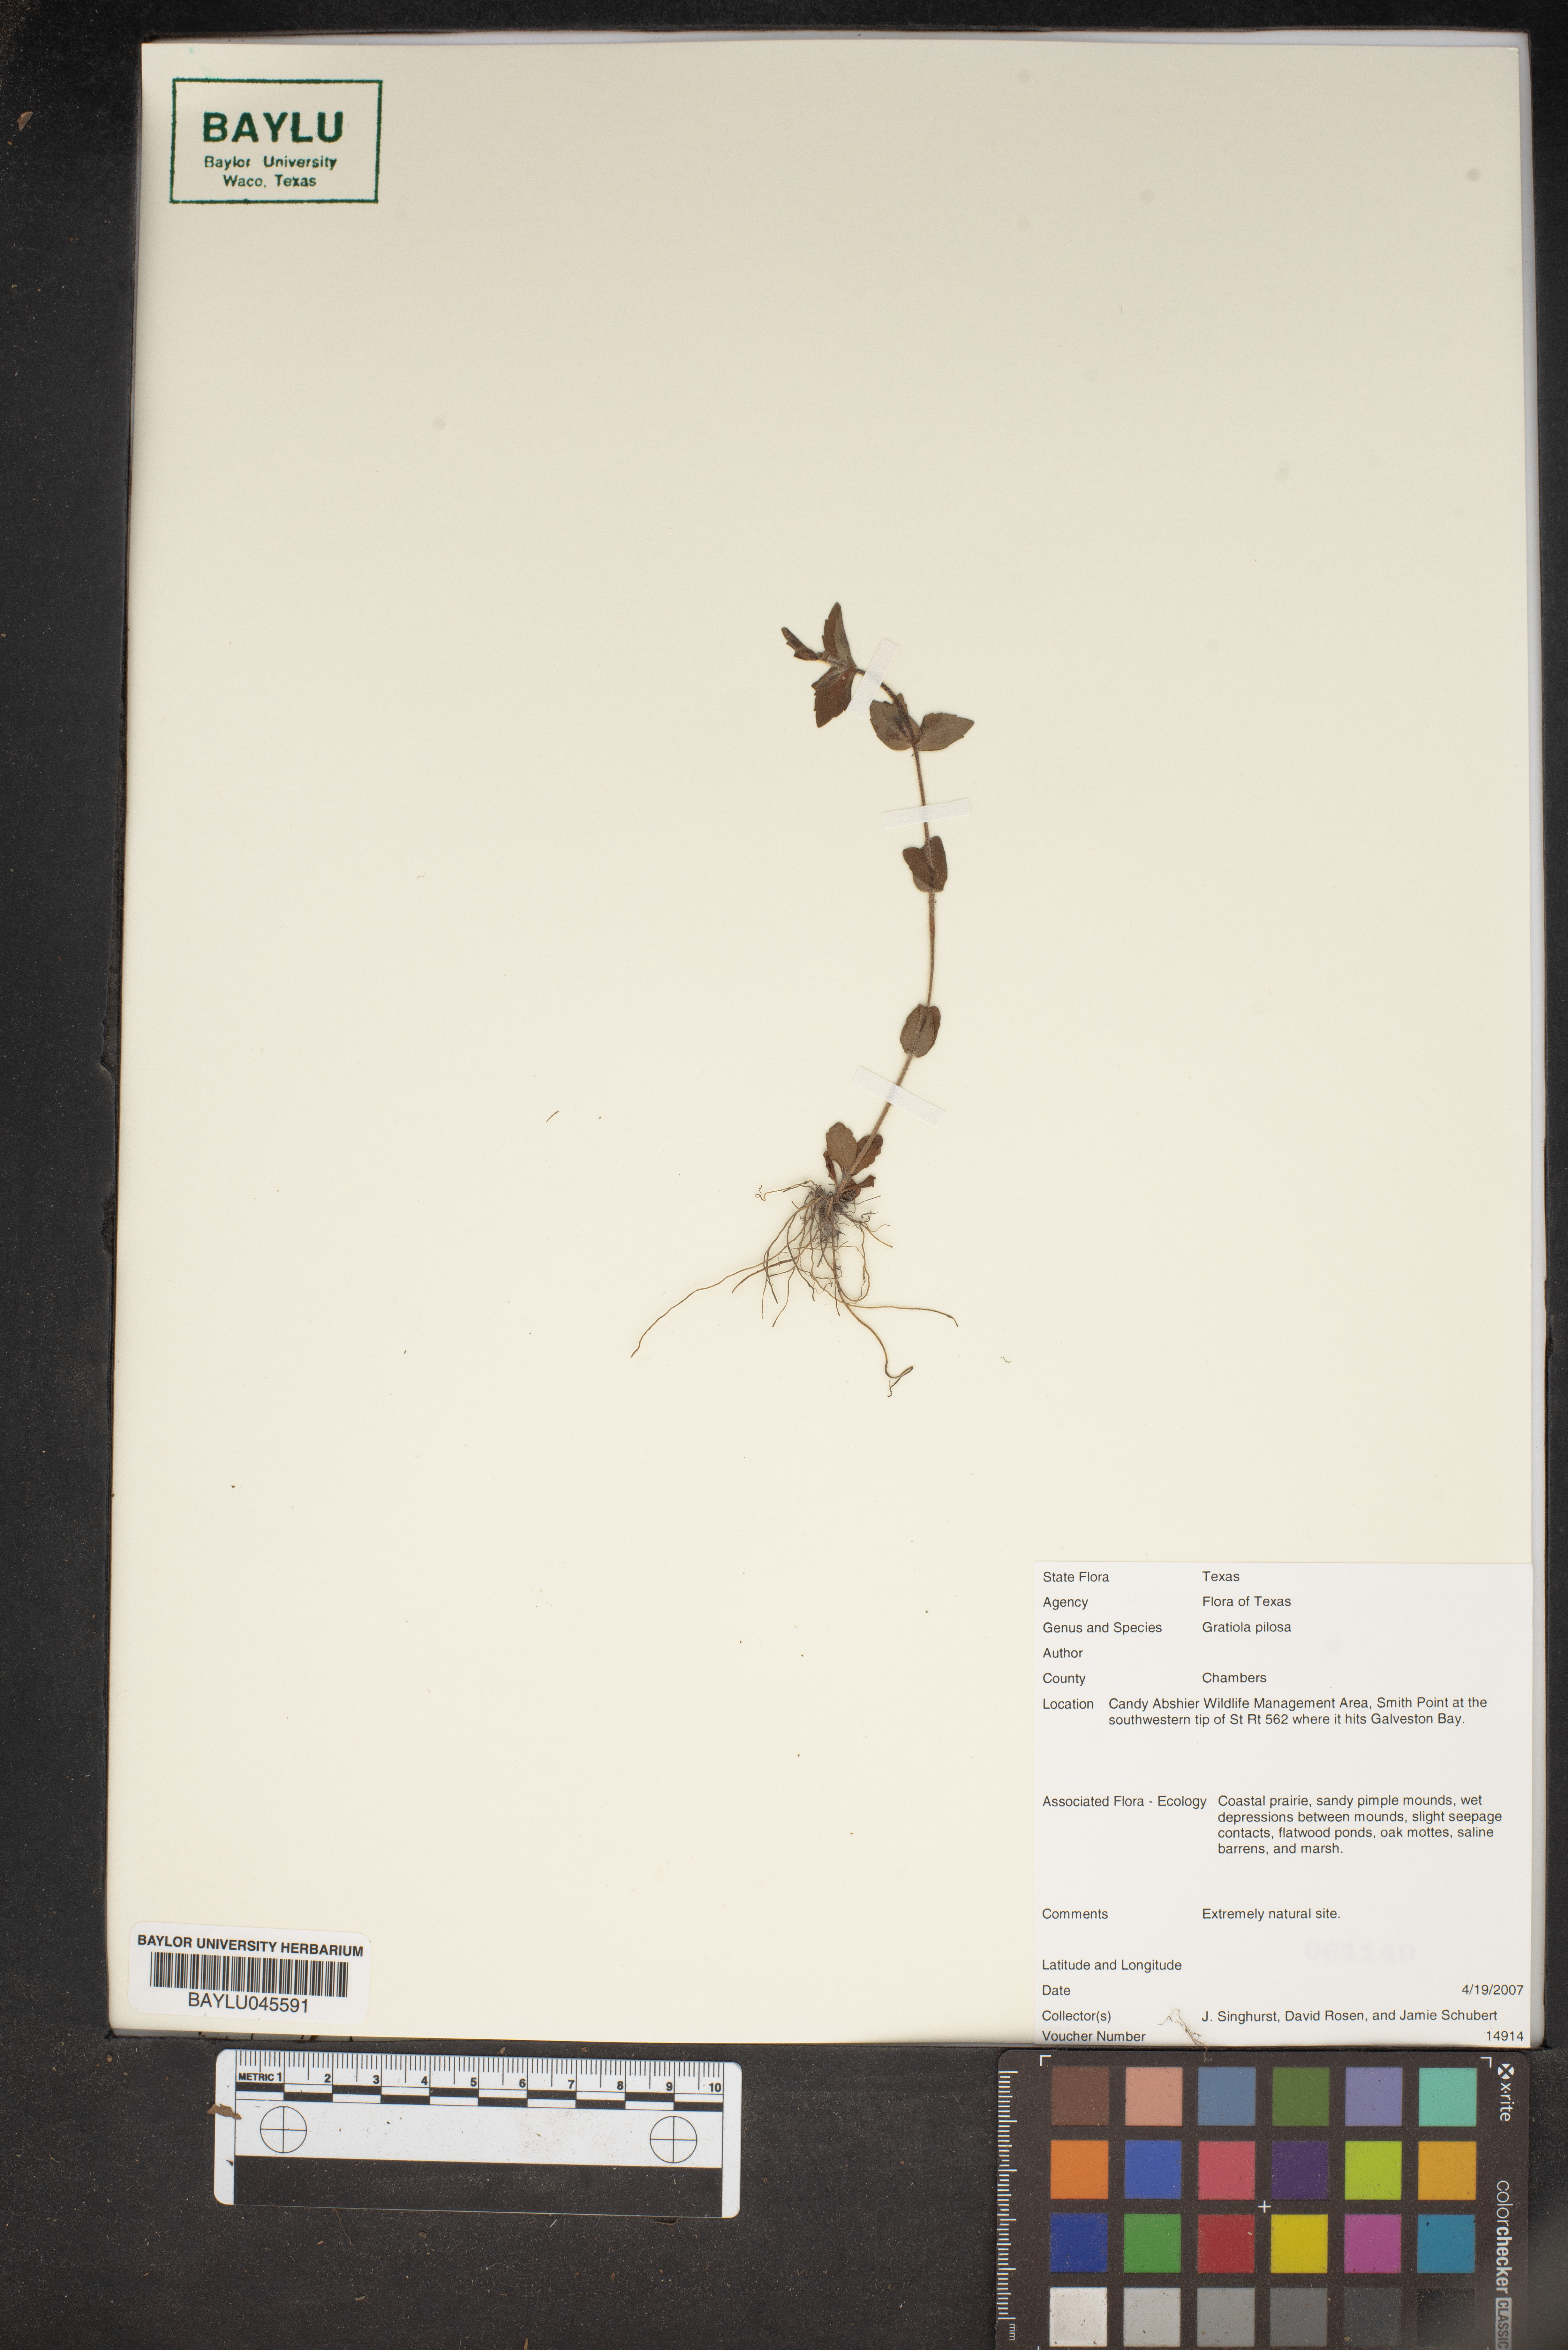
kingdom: Plantae
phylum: Tracheophyta
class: Magnoliopsida
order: Lamiales
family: Plantaginaceae
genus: Gratiola
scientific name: Gratiola pilosa
